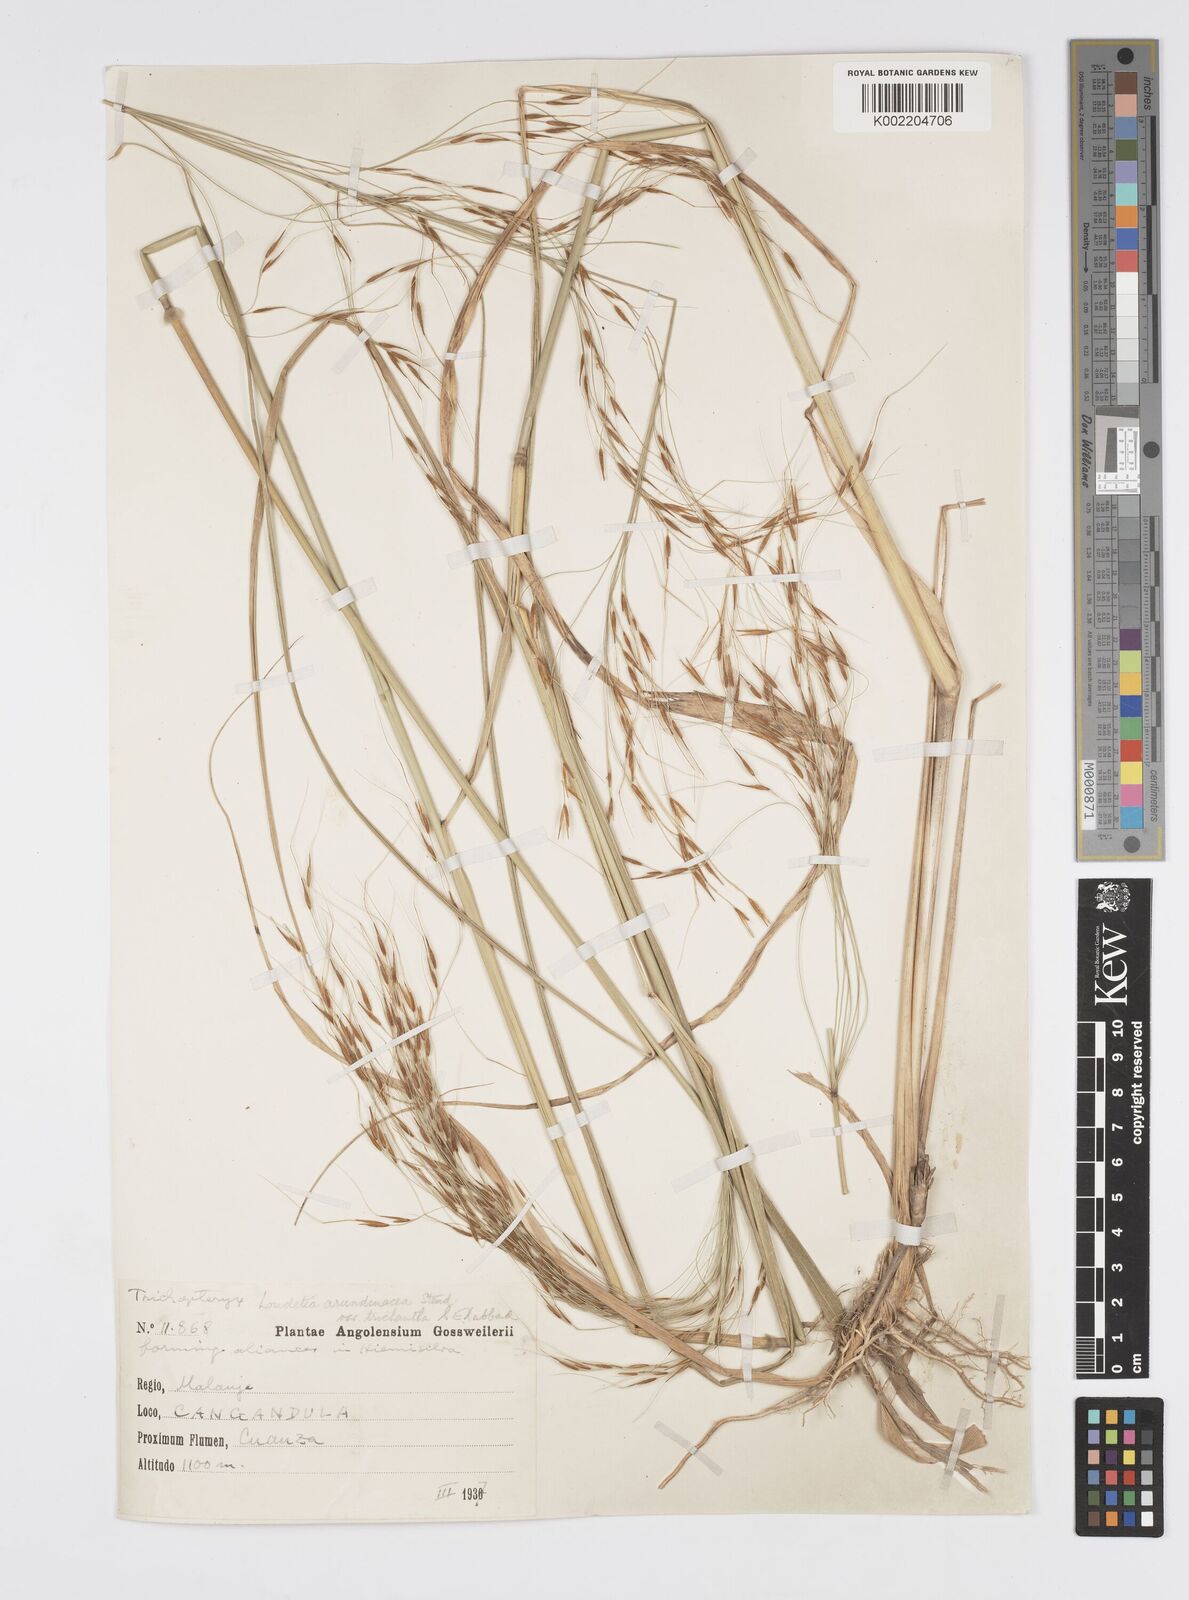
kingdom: Plantae
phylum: Tracheophyta
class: Liliopsida
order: Poales
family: Poaceae
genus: Loudetia
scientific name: Loudetia arundinacea
